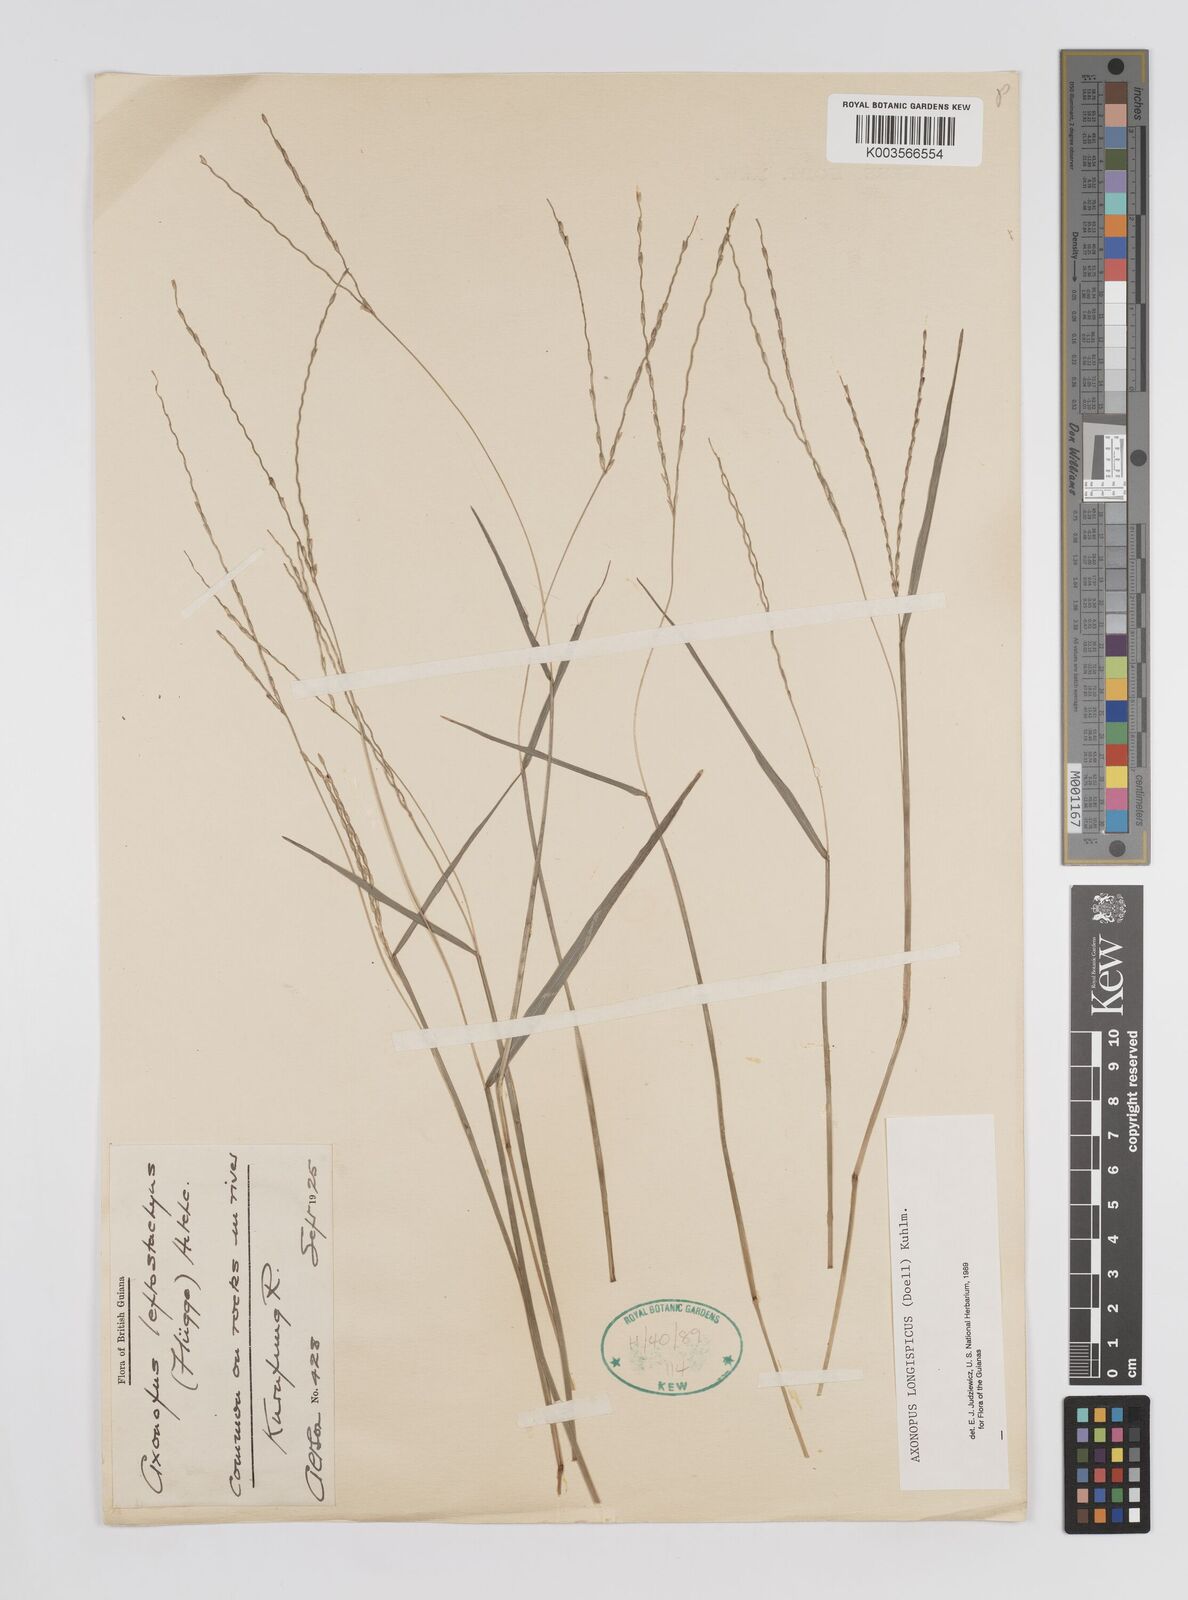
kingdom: Plantae
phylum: Tracheophyta
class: Liliopsida
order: Poales
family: Poaceae
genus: Axonopus
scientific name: Axonopus longispicus
